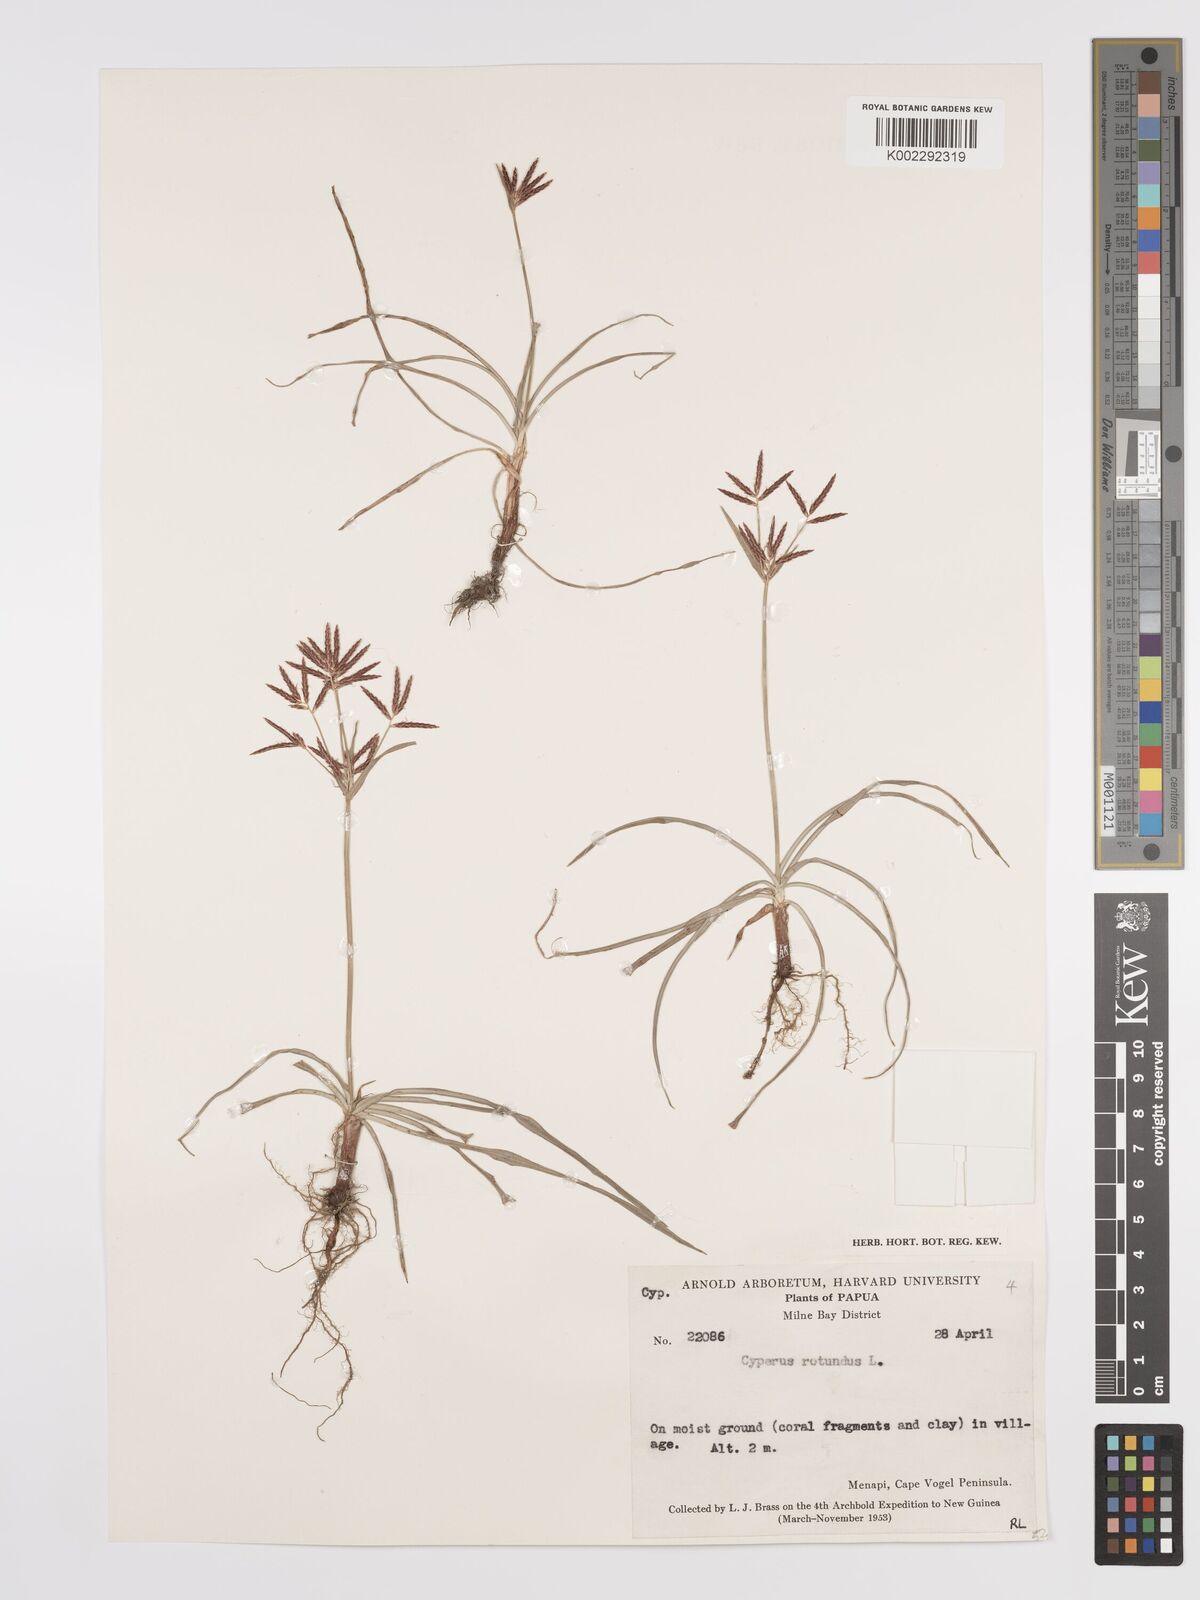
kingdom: Plantae
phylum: Tracheophyta
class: Liliopsida
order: Poales
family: Cyperaceae
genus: Cyperus
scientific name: Cyperus rotundus
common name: Nutgrass
